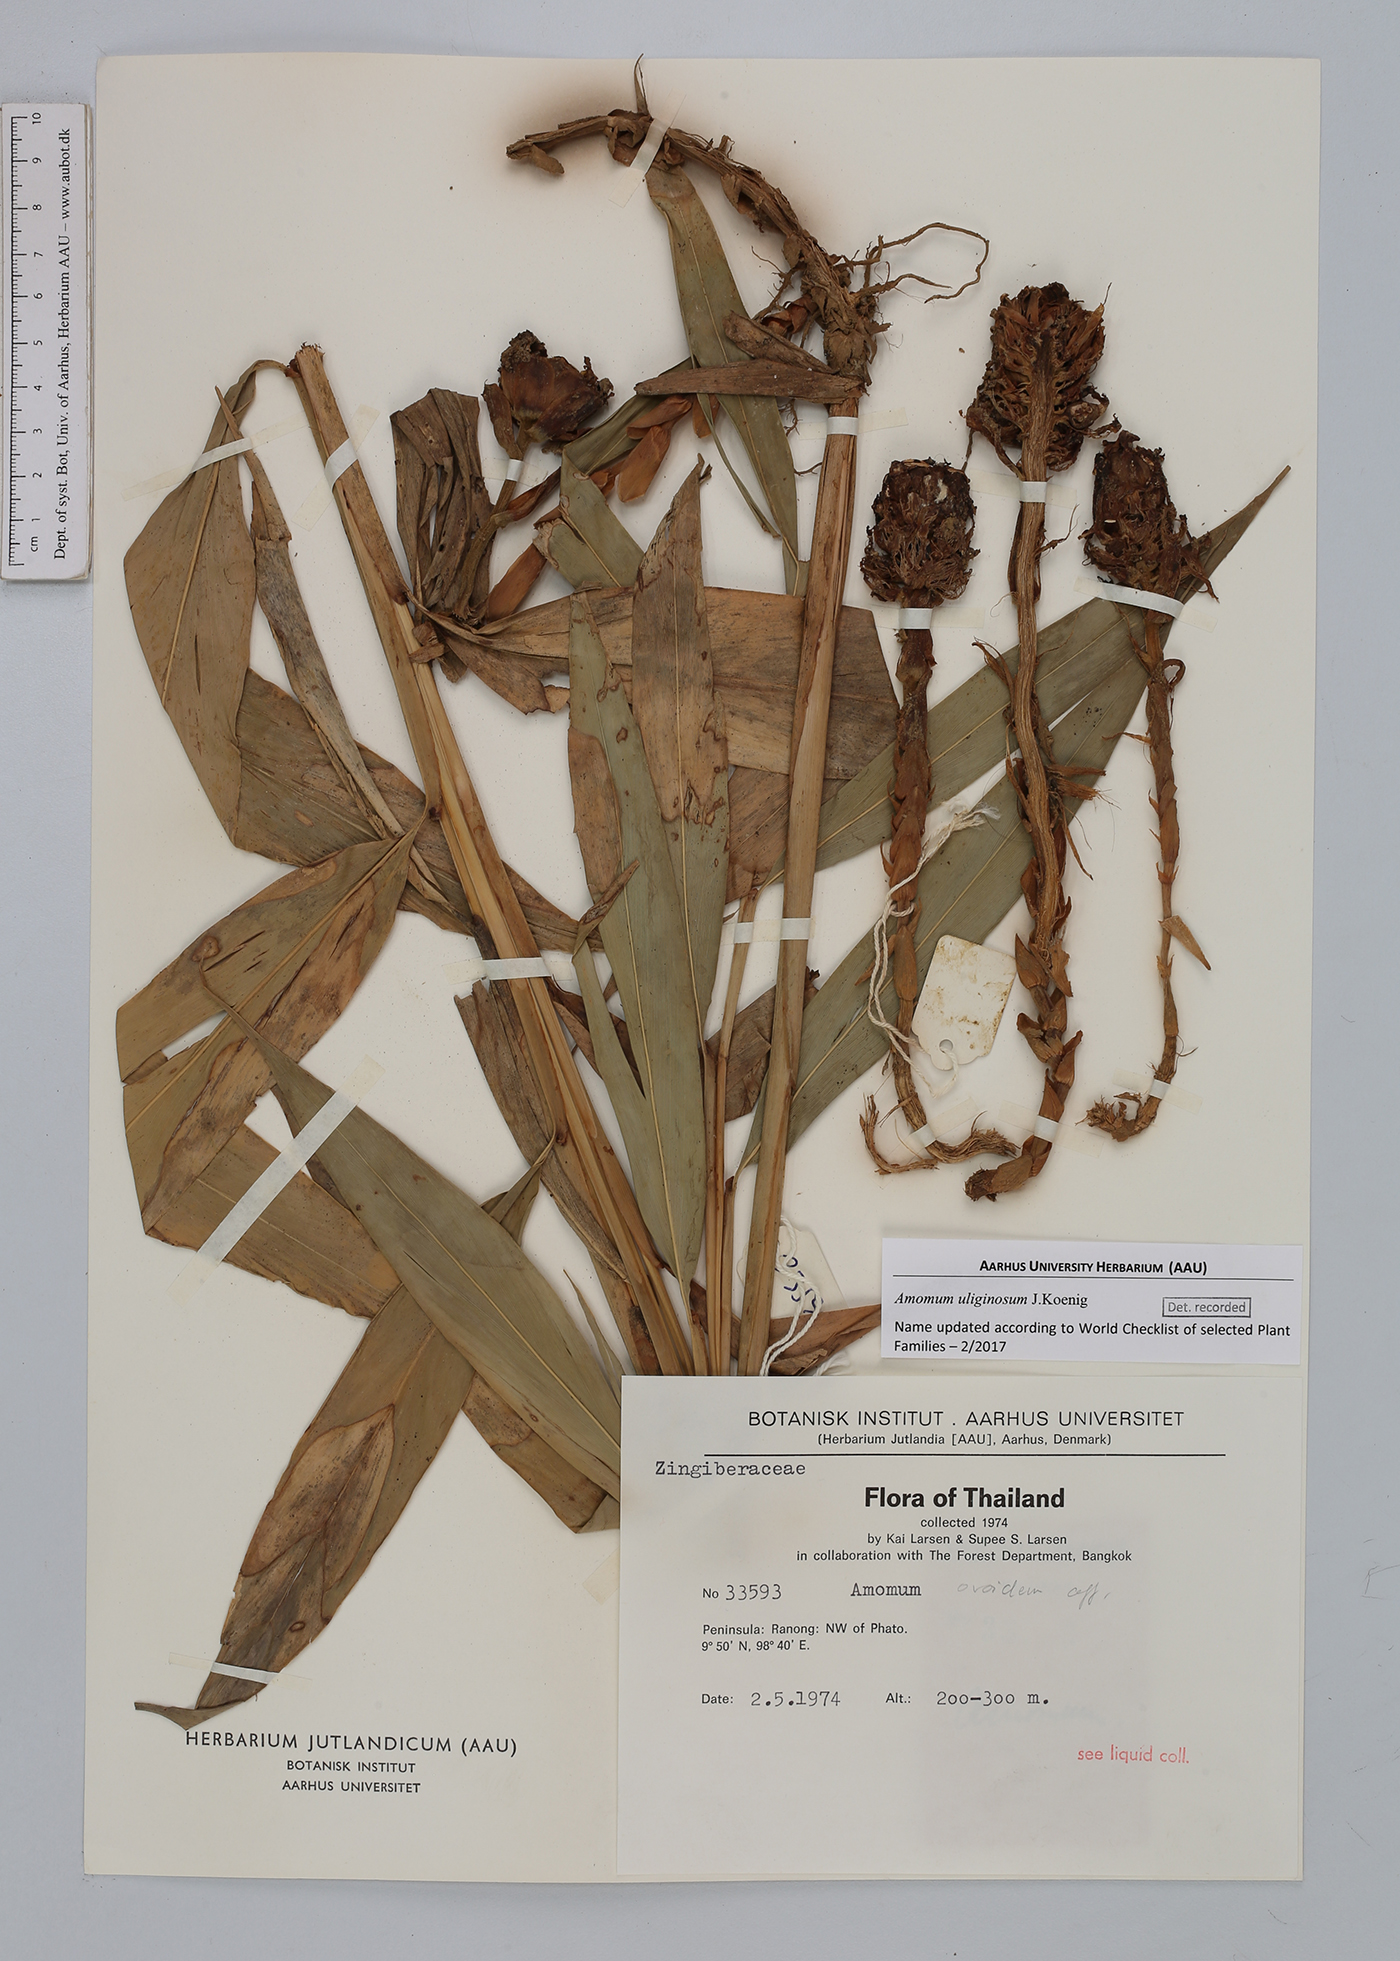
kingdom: Plantae
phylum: Tracheophyta
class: Liliopsida
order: Zingiberales
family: Zingiberaceae
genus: Wurfbainia
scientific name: Wurfbainia uliginosa
